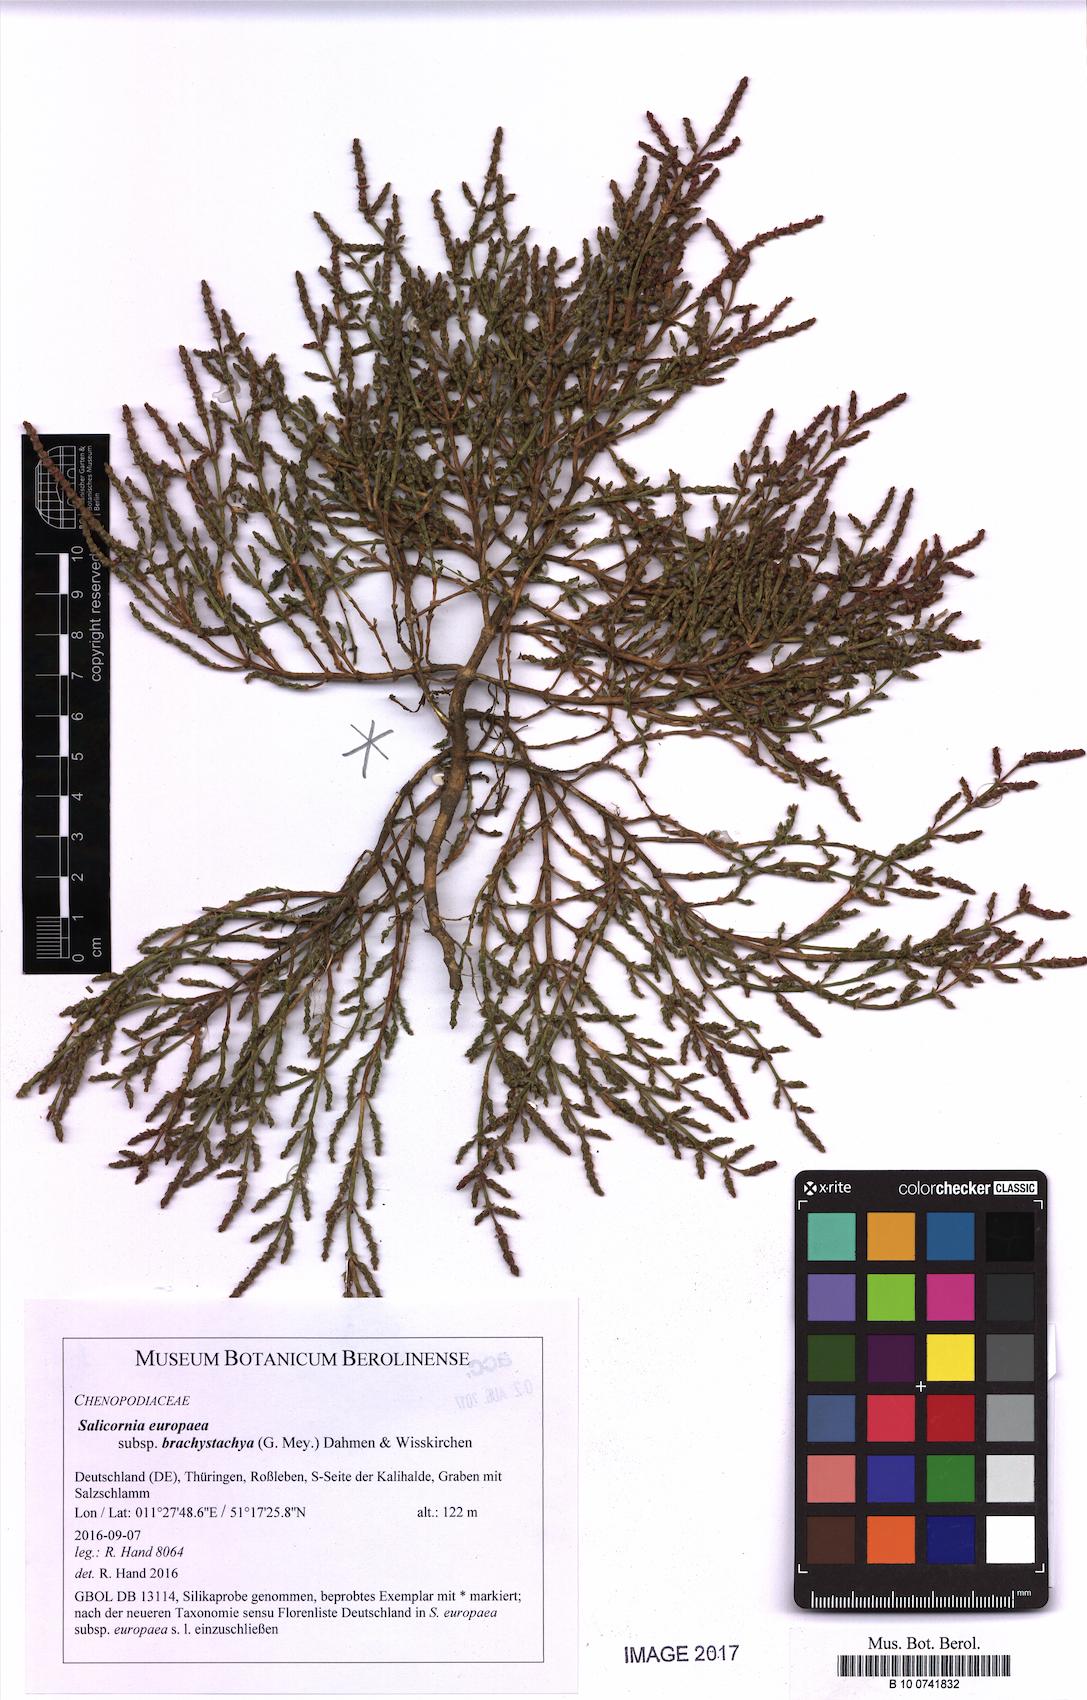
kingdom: Plantae
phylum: Tracheophyta
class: Magnoliopsida
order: Caryophyllales
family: Amaranthaceae
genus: Salicornia
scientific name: Salicornia europaea
